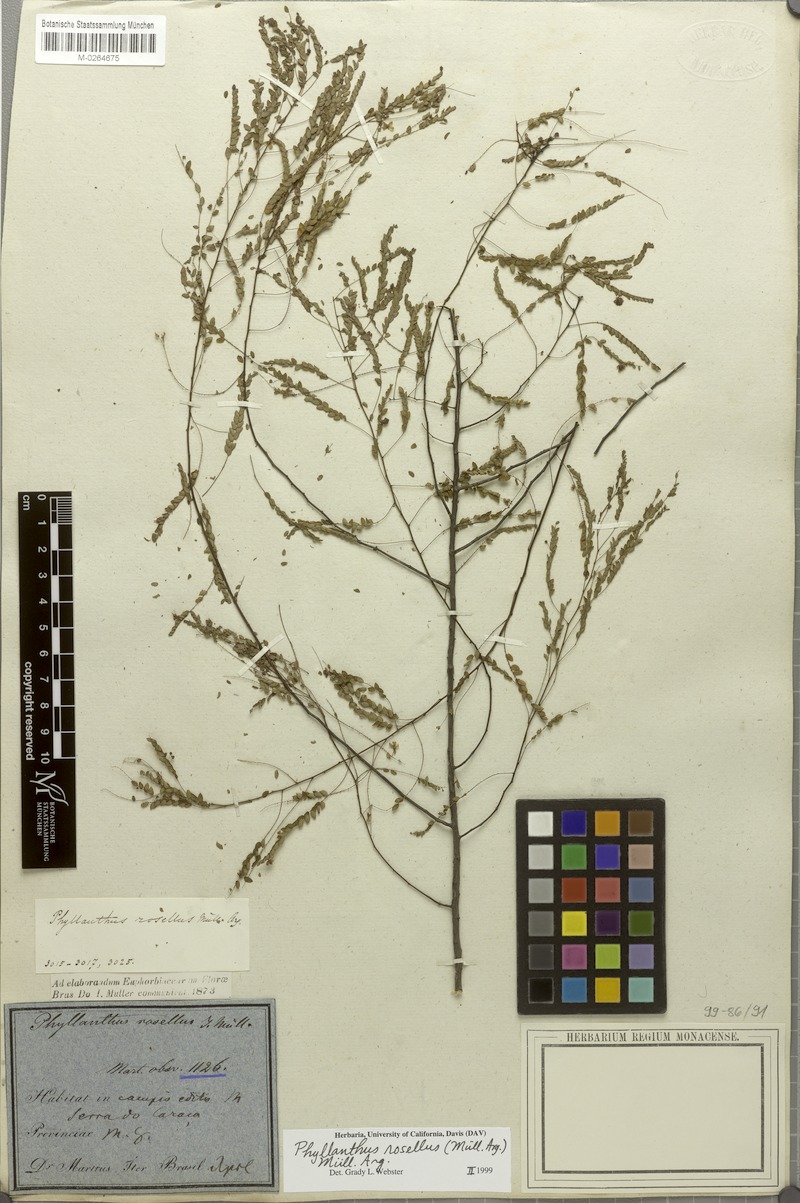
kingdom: Plantae
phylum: Tracheophyta
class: Magnoliopsida
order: Malpighiales
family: Phyllanthaceae
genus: Phyllanthus
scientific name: Phyllanthus niruri
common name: Niruri
